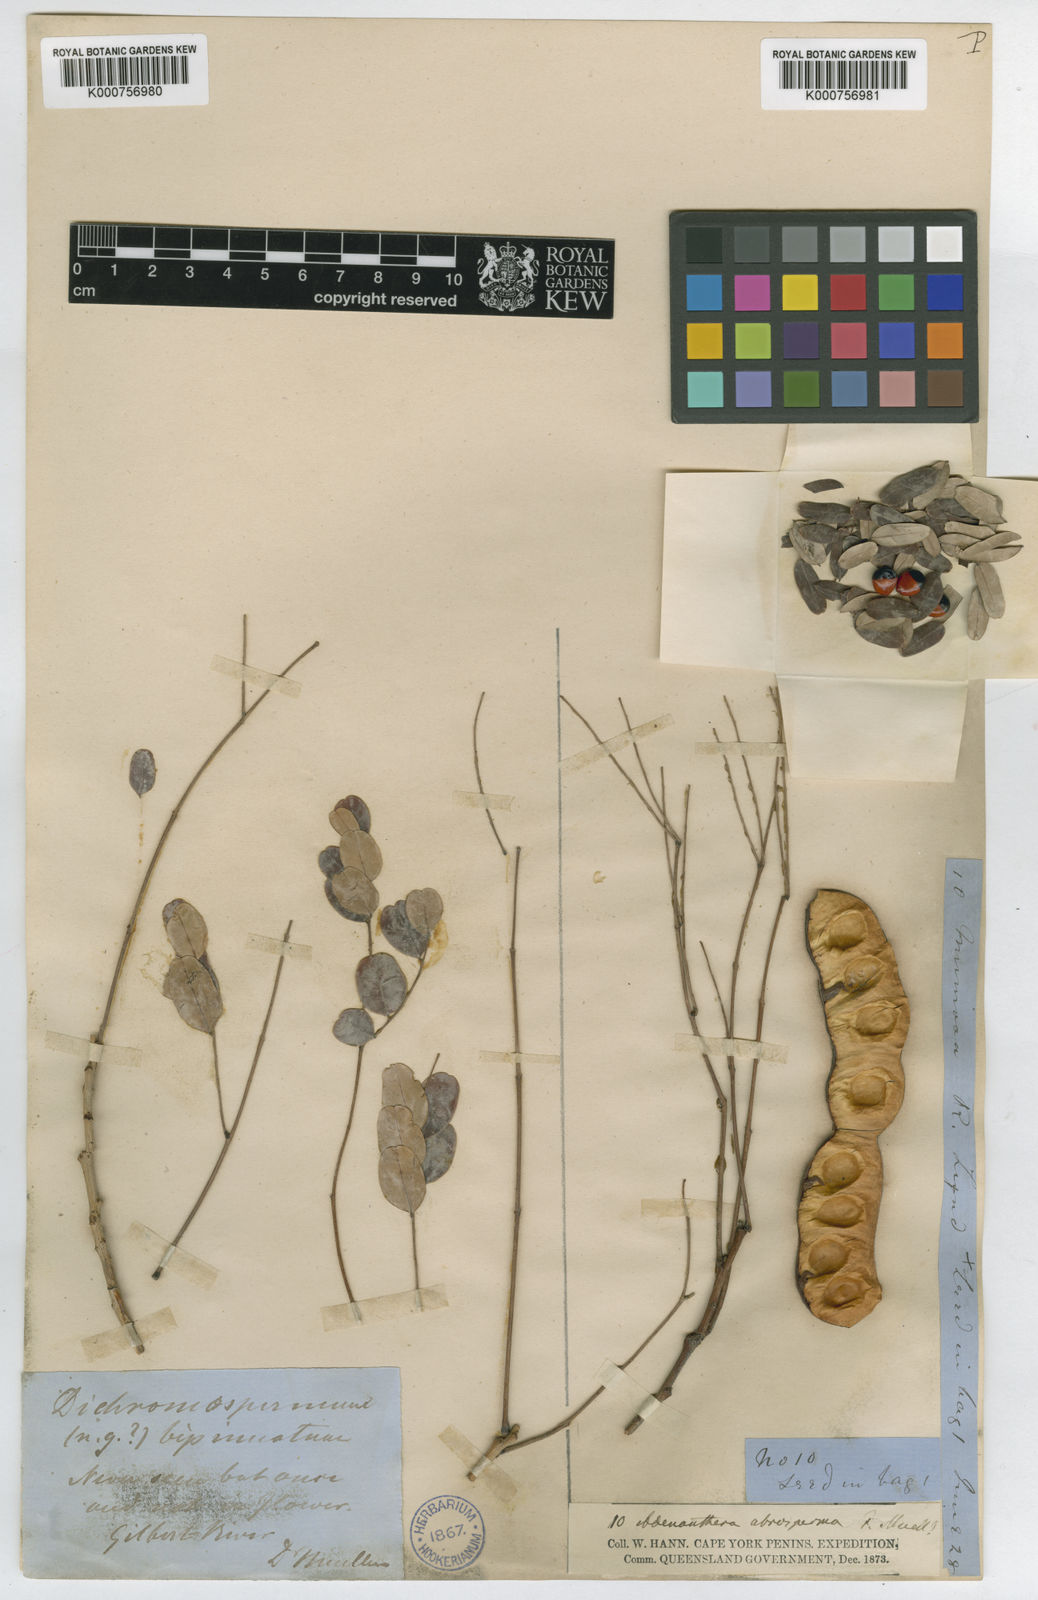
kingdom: Plantae
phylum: Tracheophyta
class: Magnoliopsida
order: Fabales
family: Fabaceae
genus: Adenanthera
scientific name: Adenanthera abrosperma
